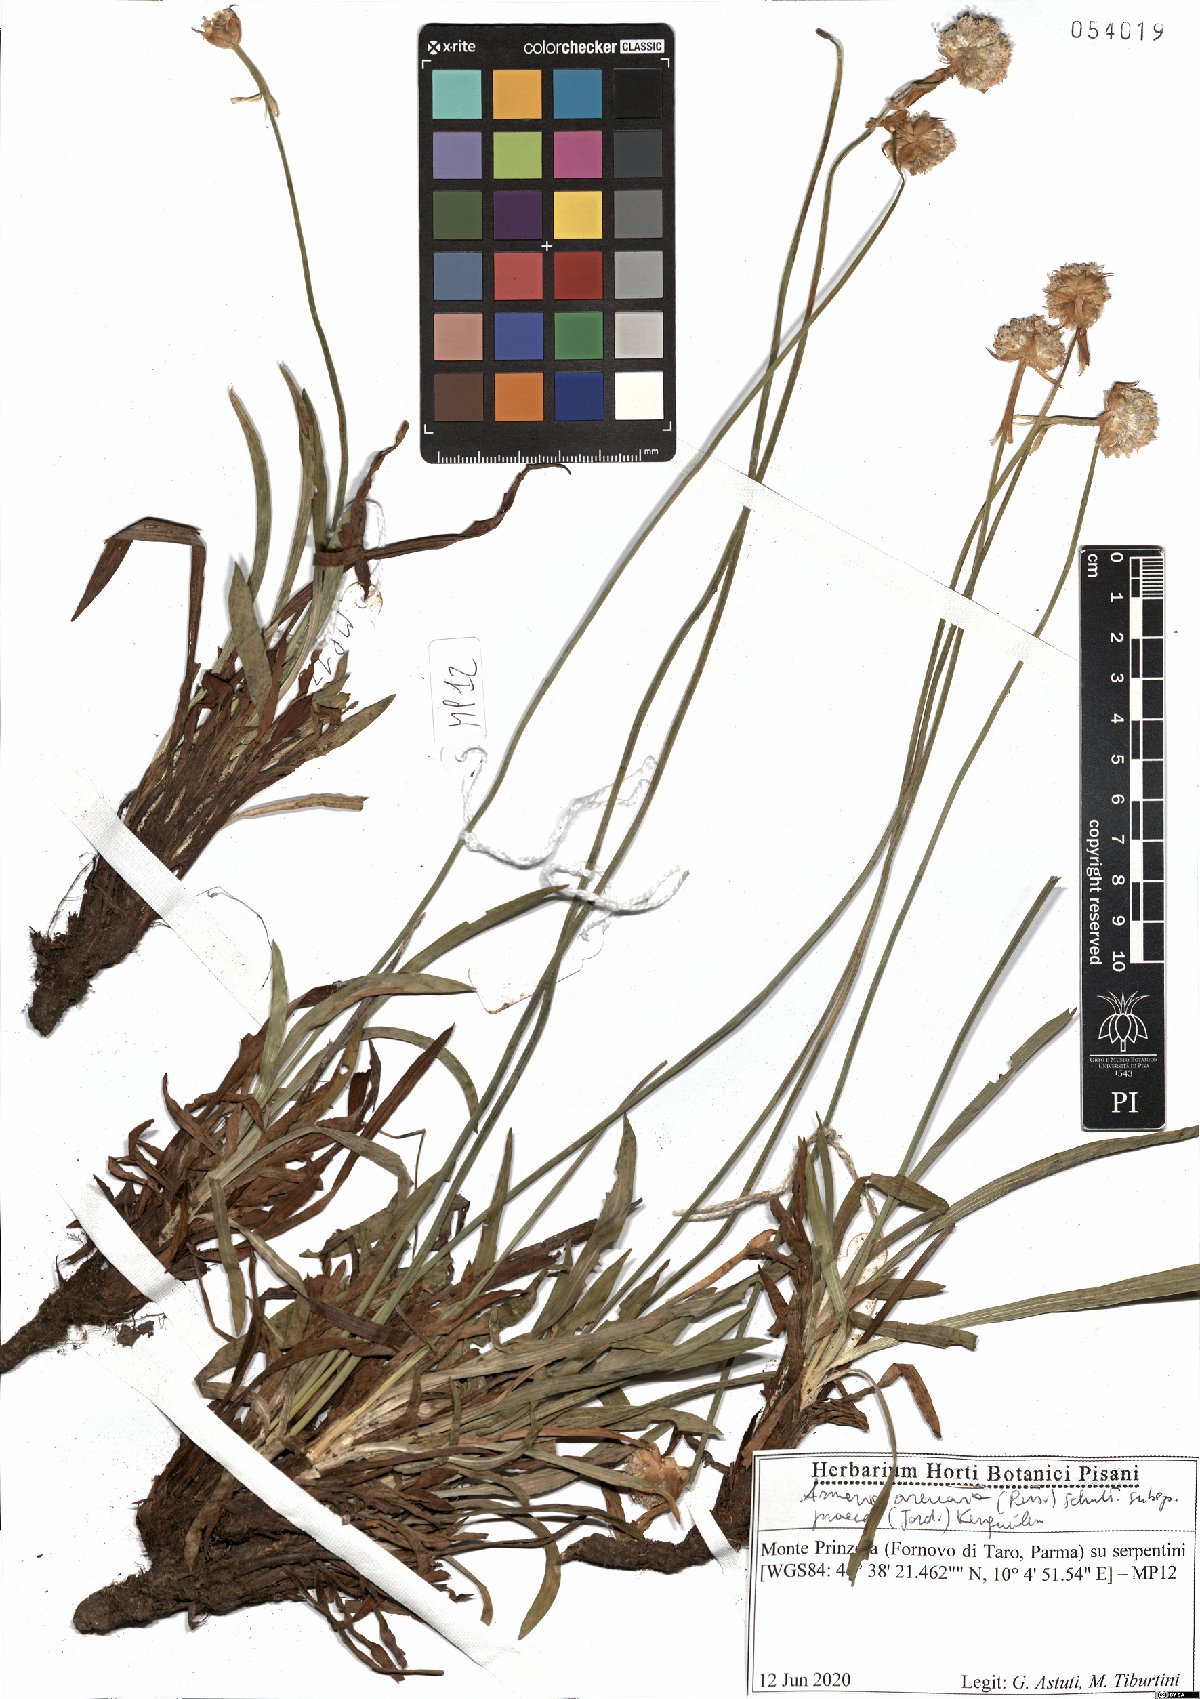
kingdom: Plantae
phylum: Tracheophyta
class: Magnoliopsida
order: Caryophyllales
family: Plumbaginaceae
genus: Armeria
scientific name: Armeria arenaria
